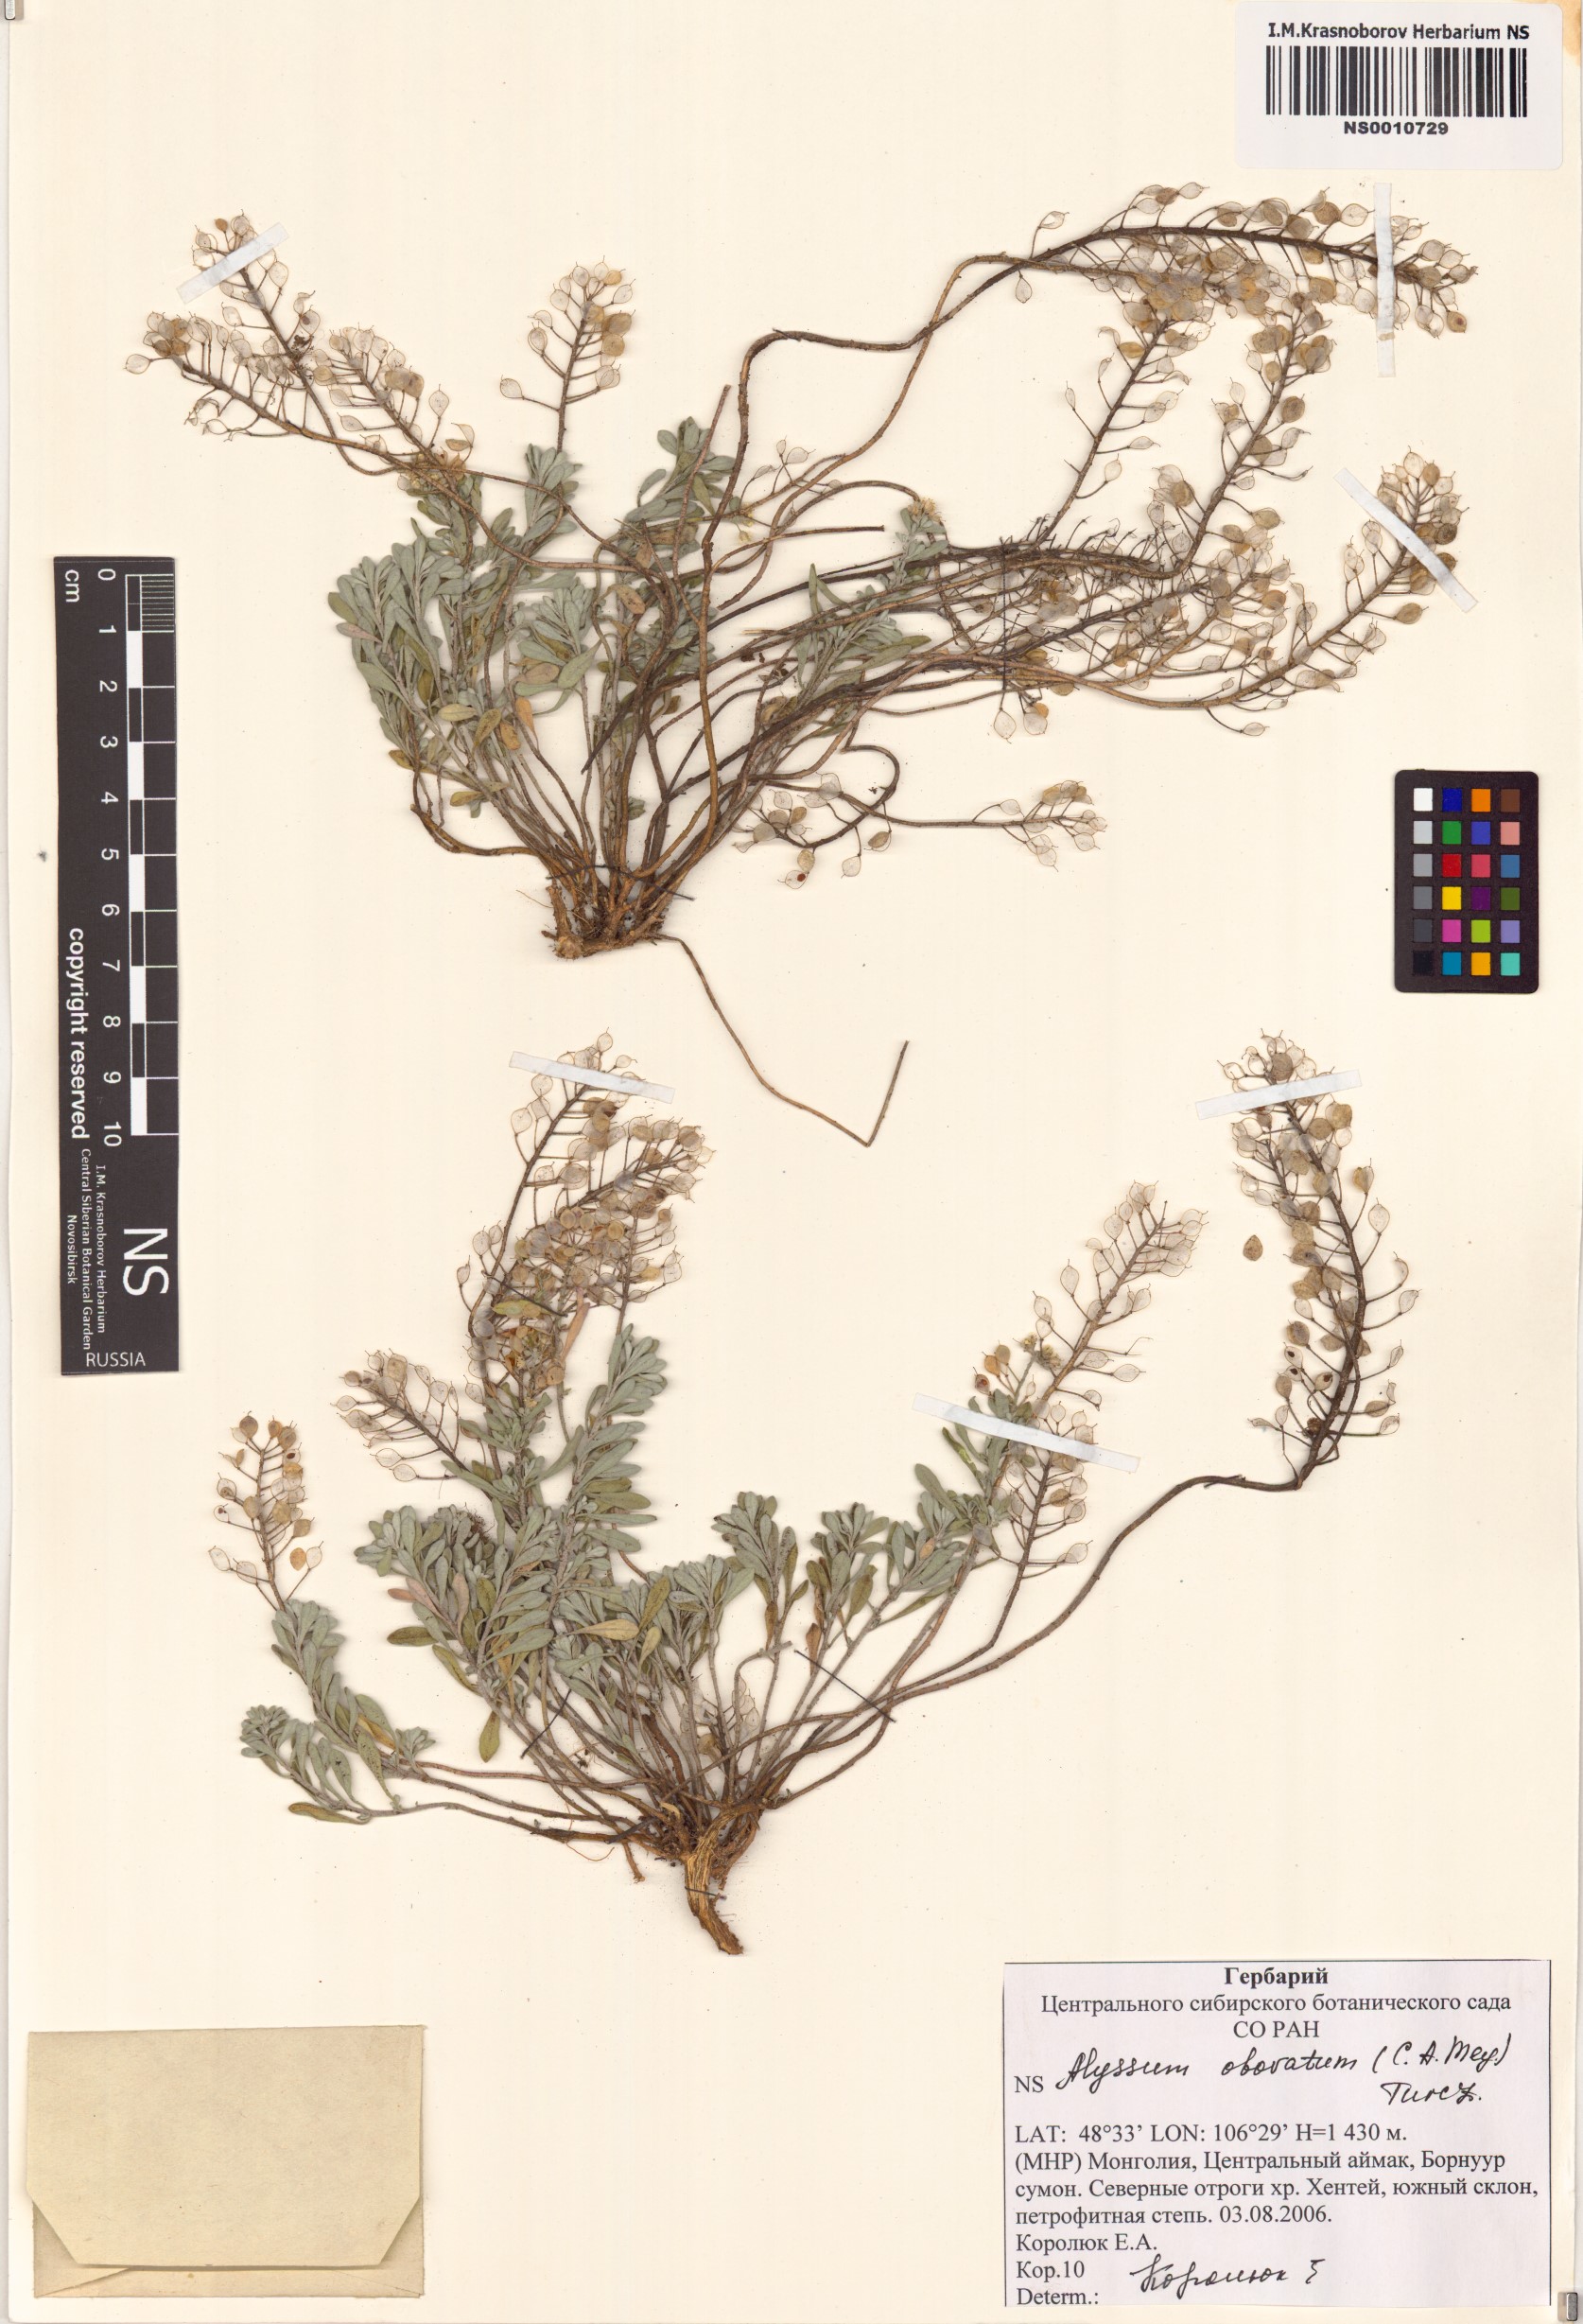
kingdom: Plantae
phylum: Tracheophyta
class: Magnoliopsida
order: Brassicales
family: Brassicaceae
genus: Odontarrhena
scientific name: Odontarrhena obovata
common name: American alyssum
